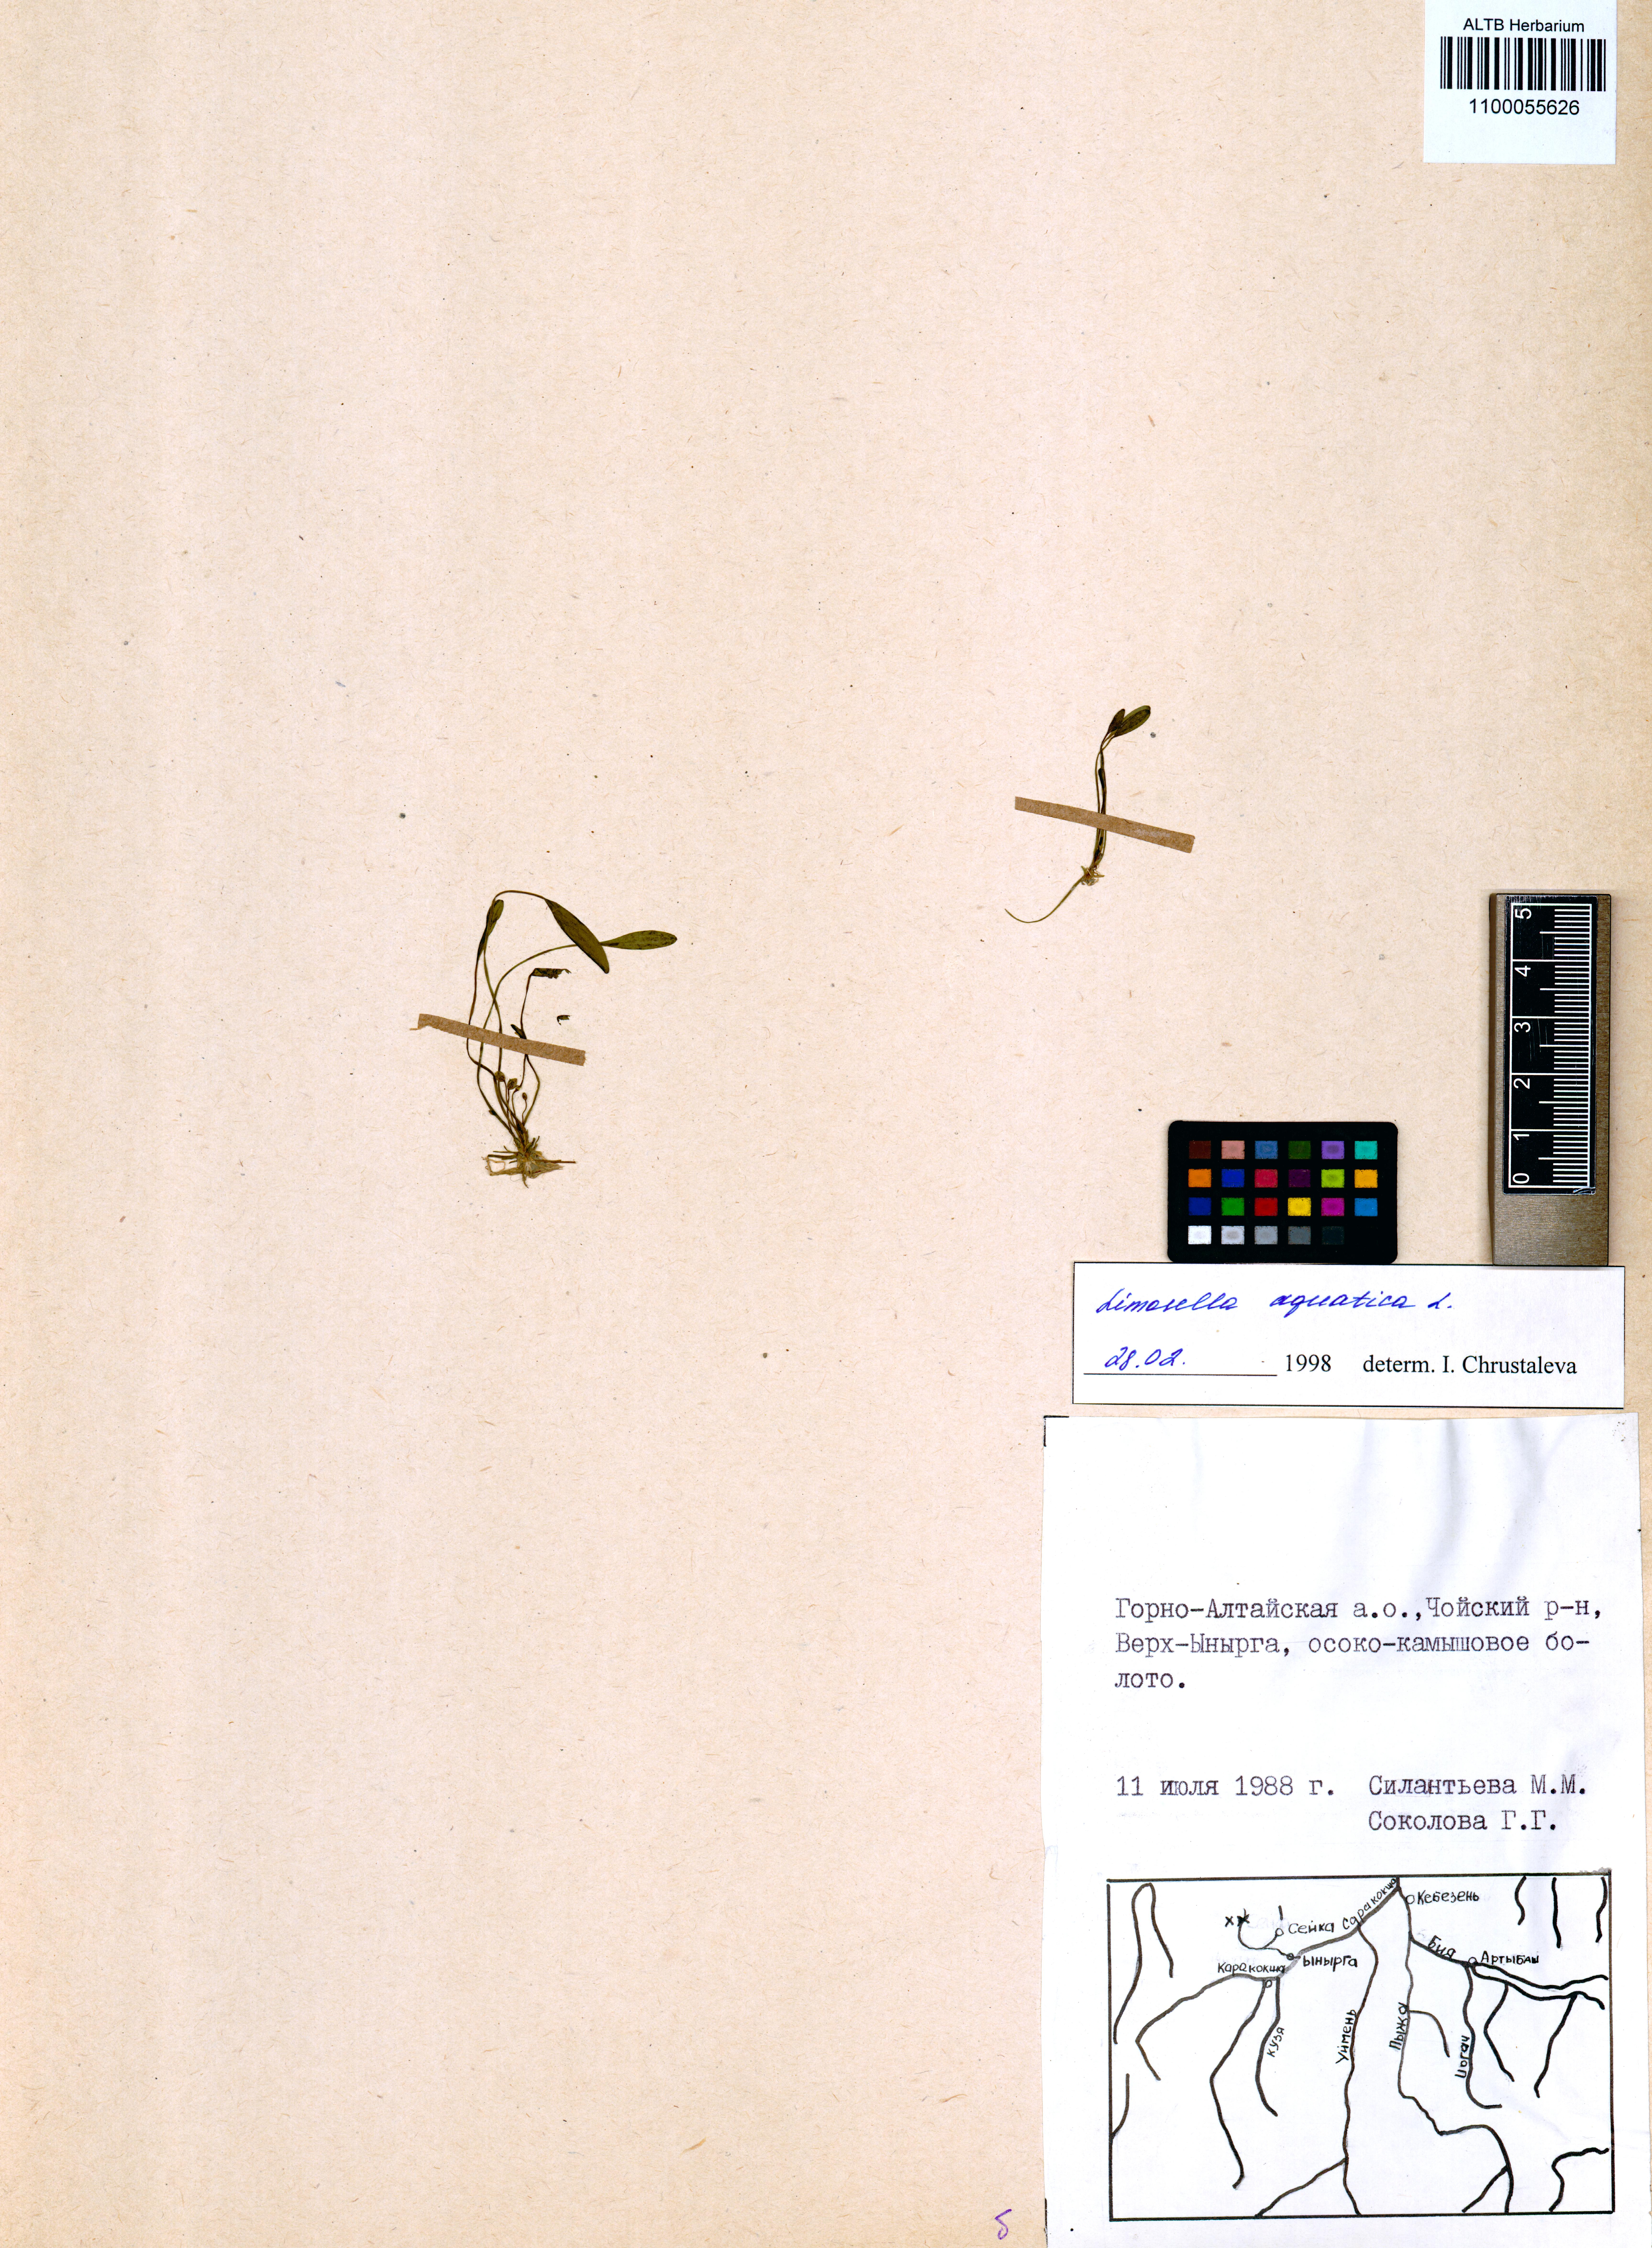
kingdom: Plantae
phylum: Tracheophyta
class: Magnoliopsida
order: Lamiales
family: Scrophulariaceae
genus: Limosella
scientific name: Limosella aquatica
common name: Mudwort
